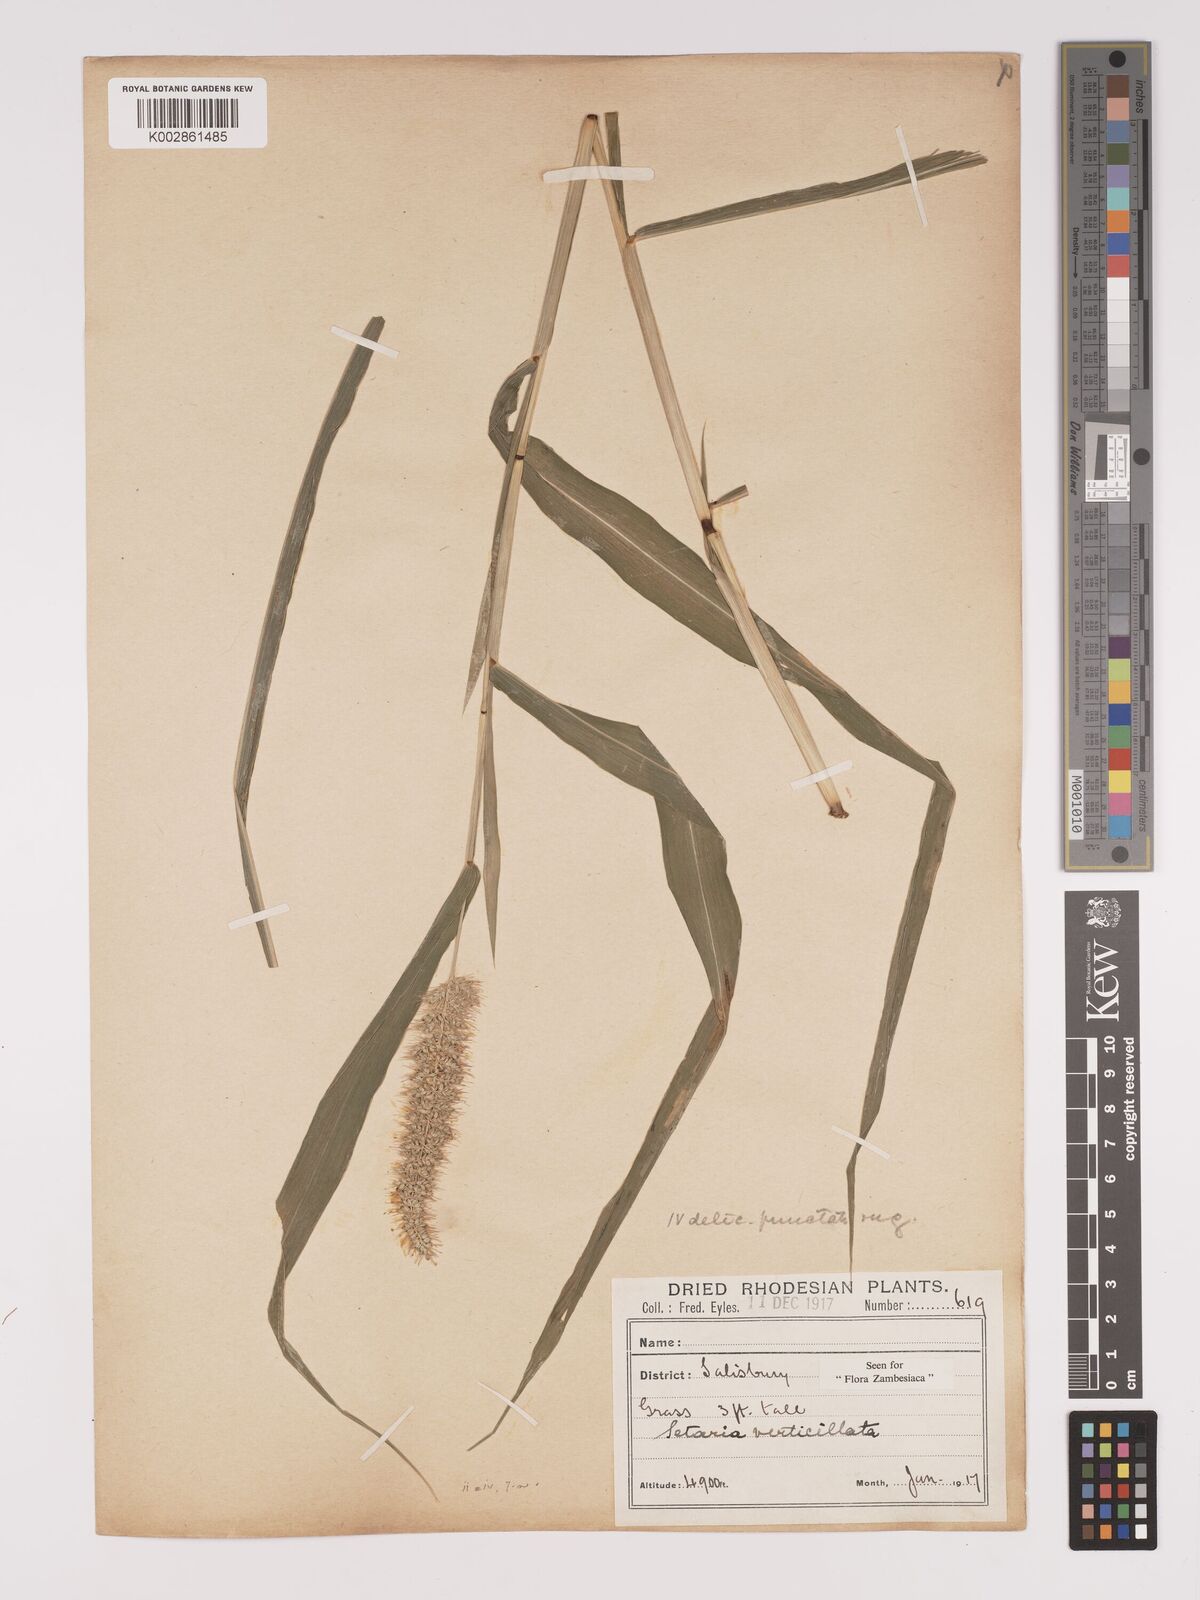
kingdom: Plantae
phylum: Tracheophyta
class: Liliopsida
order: Poales
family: Poaceae
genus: Setaria
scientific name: Setaria verticillata
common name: Hooked bristlegrass
